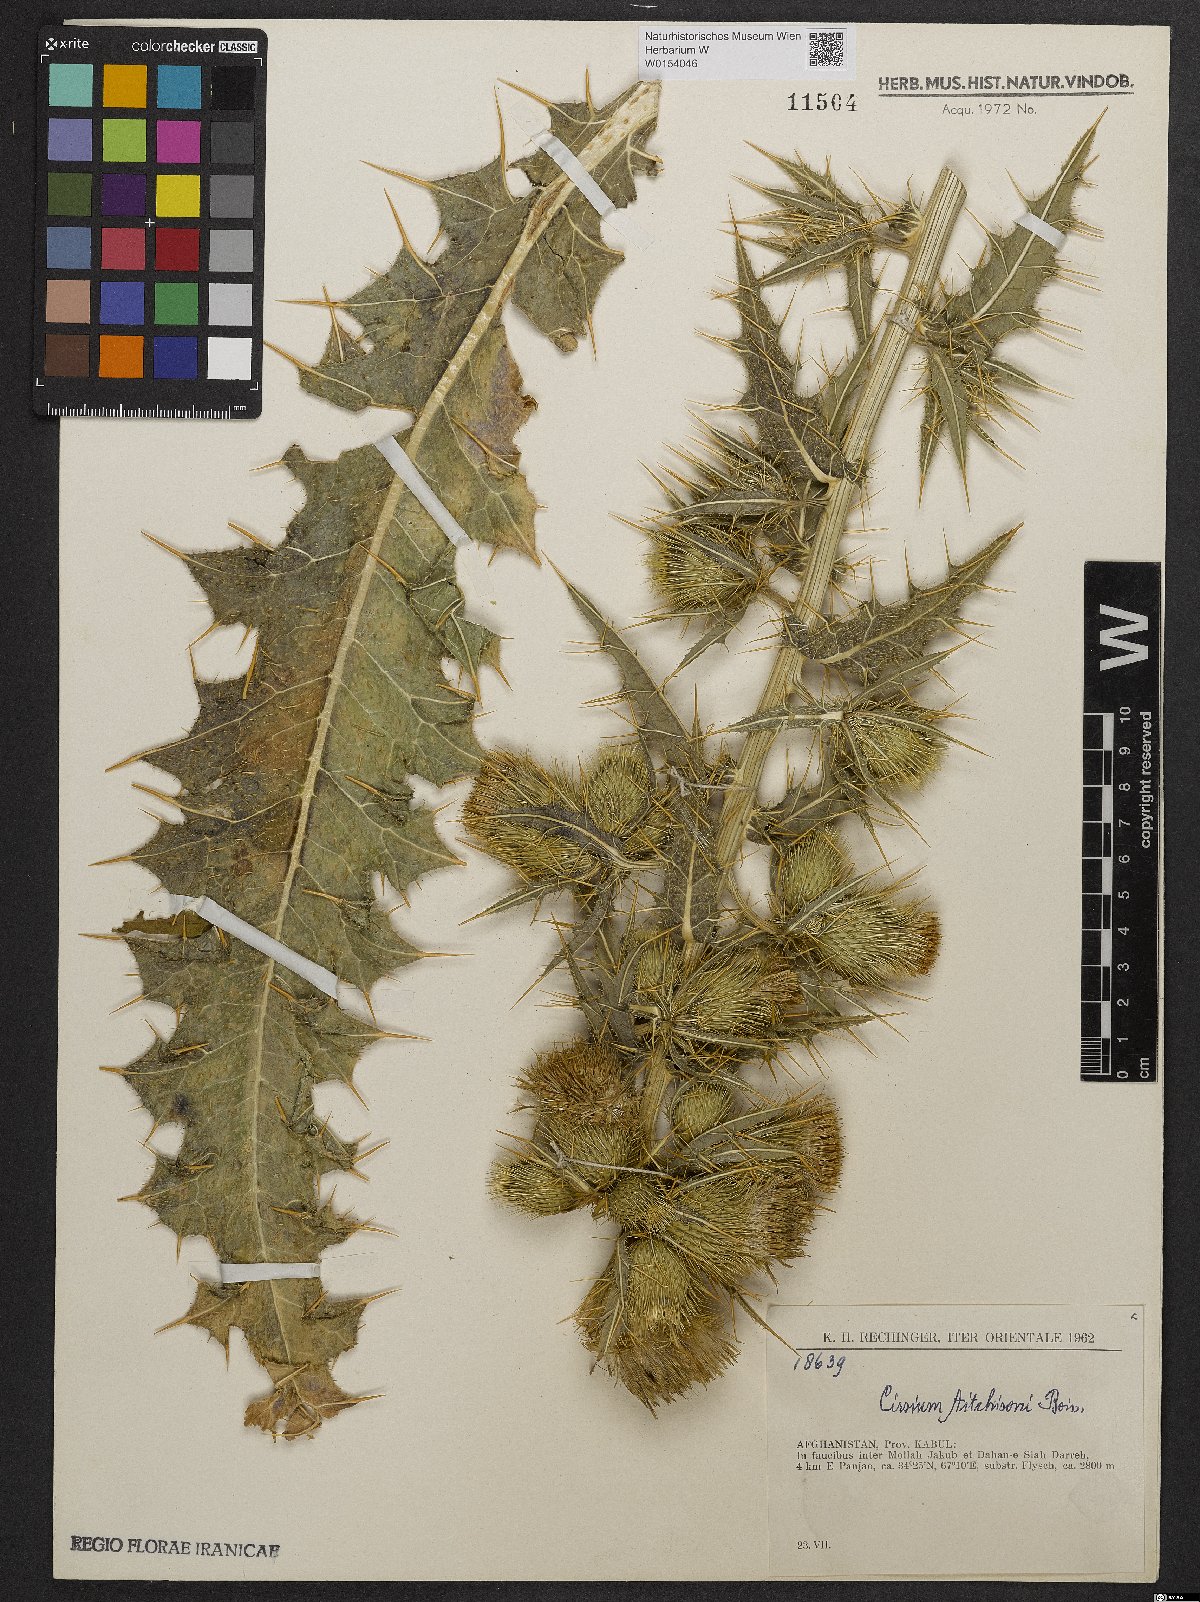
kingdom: Plantae
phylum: Tracheophyta
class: Magnoliopsida
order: Asterales
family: Asteraceae
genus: Lophiolepis
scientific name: Lophiolepis aitchisonii
